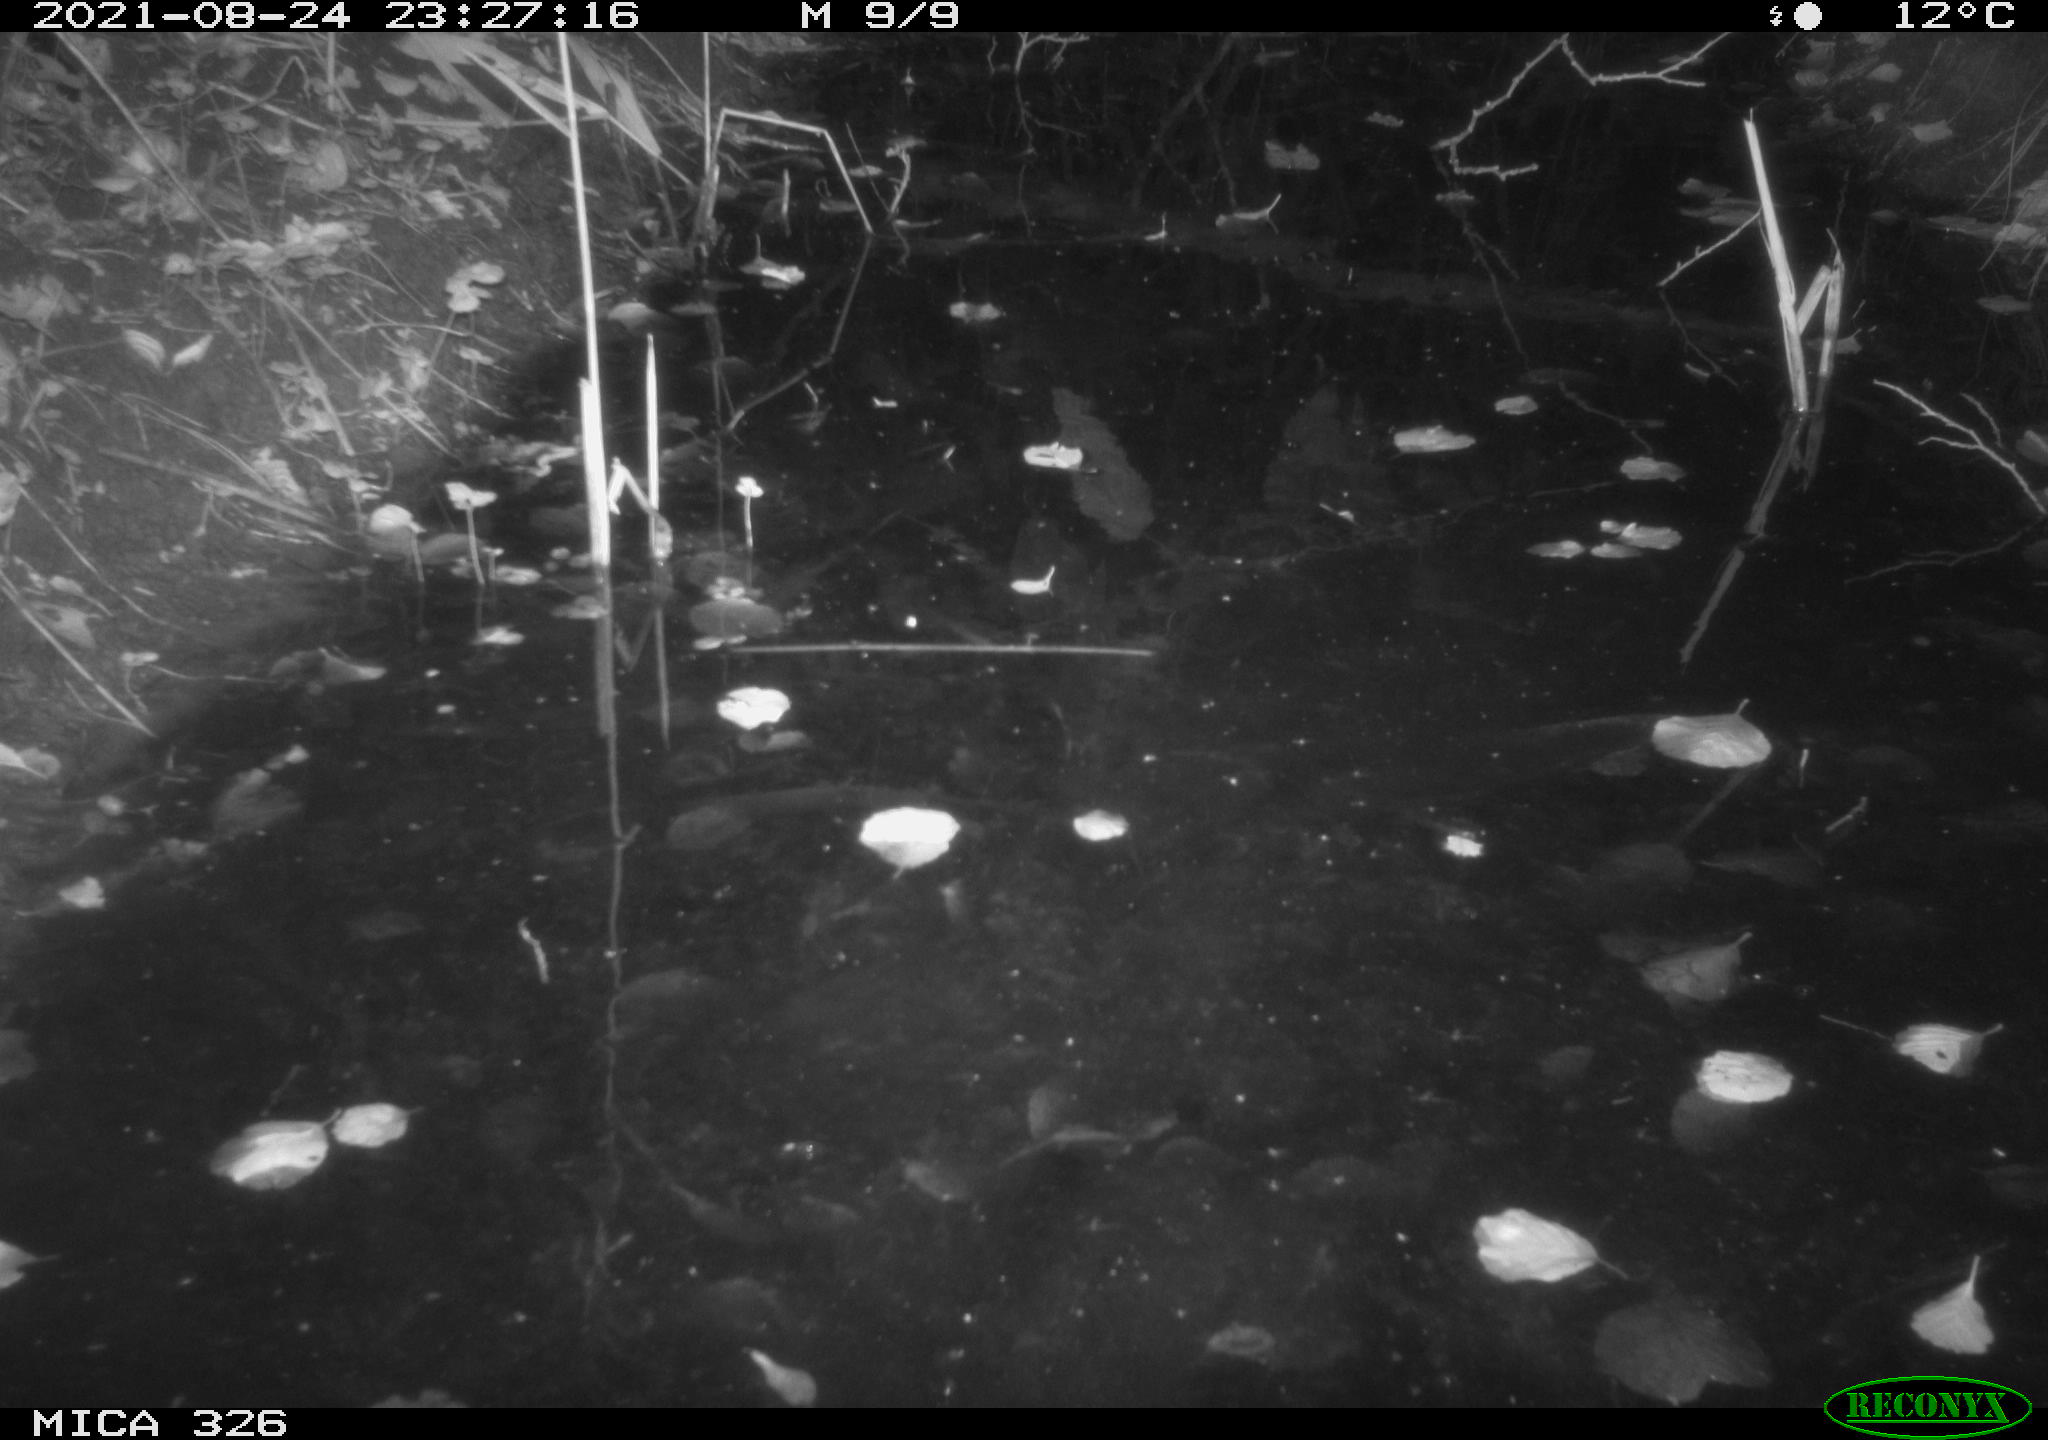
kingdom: Animalia
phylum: Chordata
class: Mammalia
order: Rodentia
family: Myocastoridae
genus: Myocastor
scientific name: Myocastor coypus
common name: Coypu
